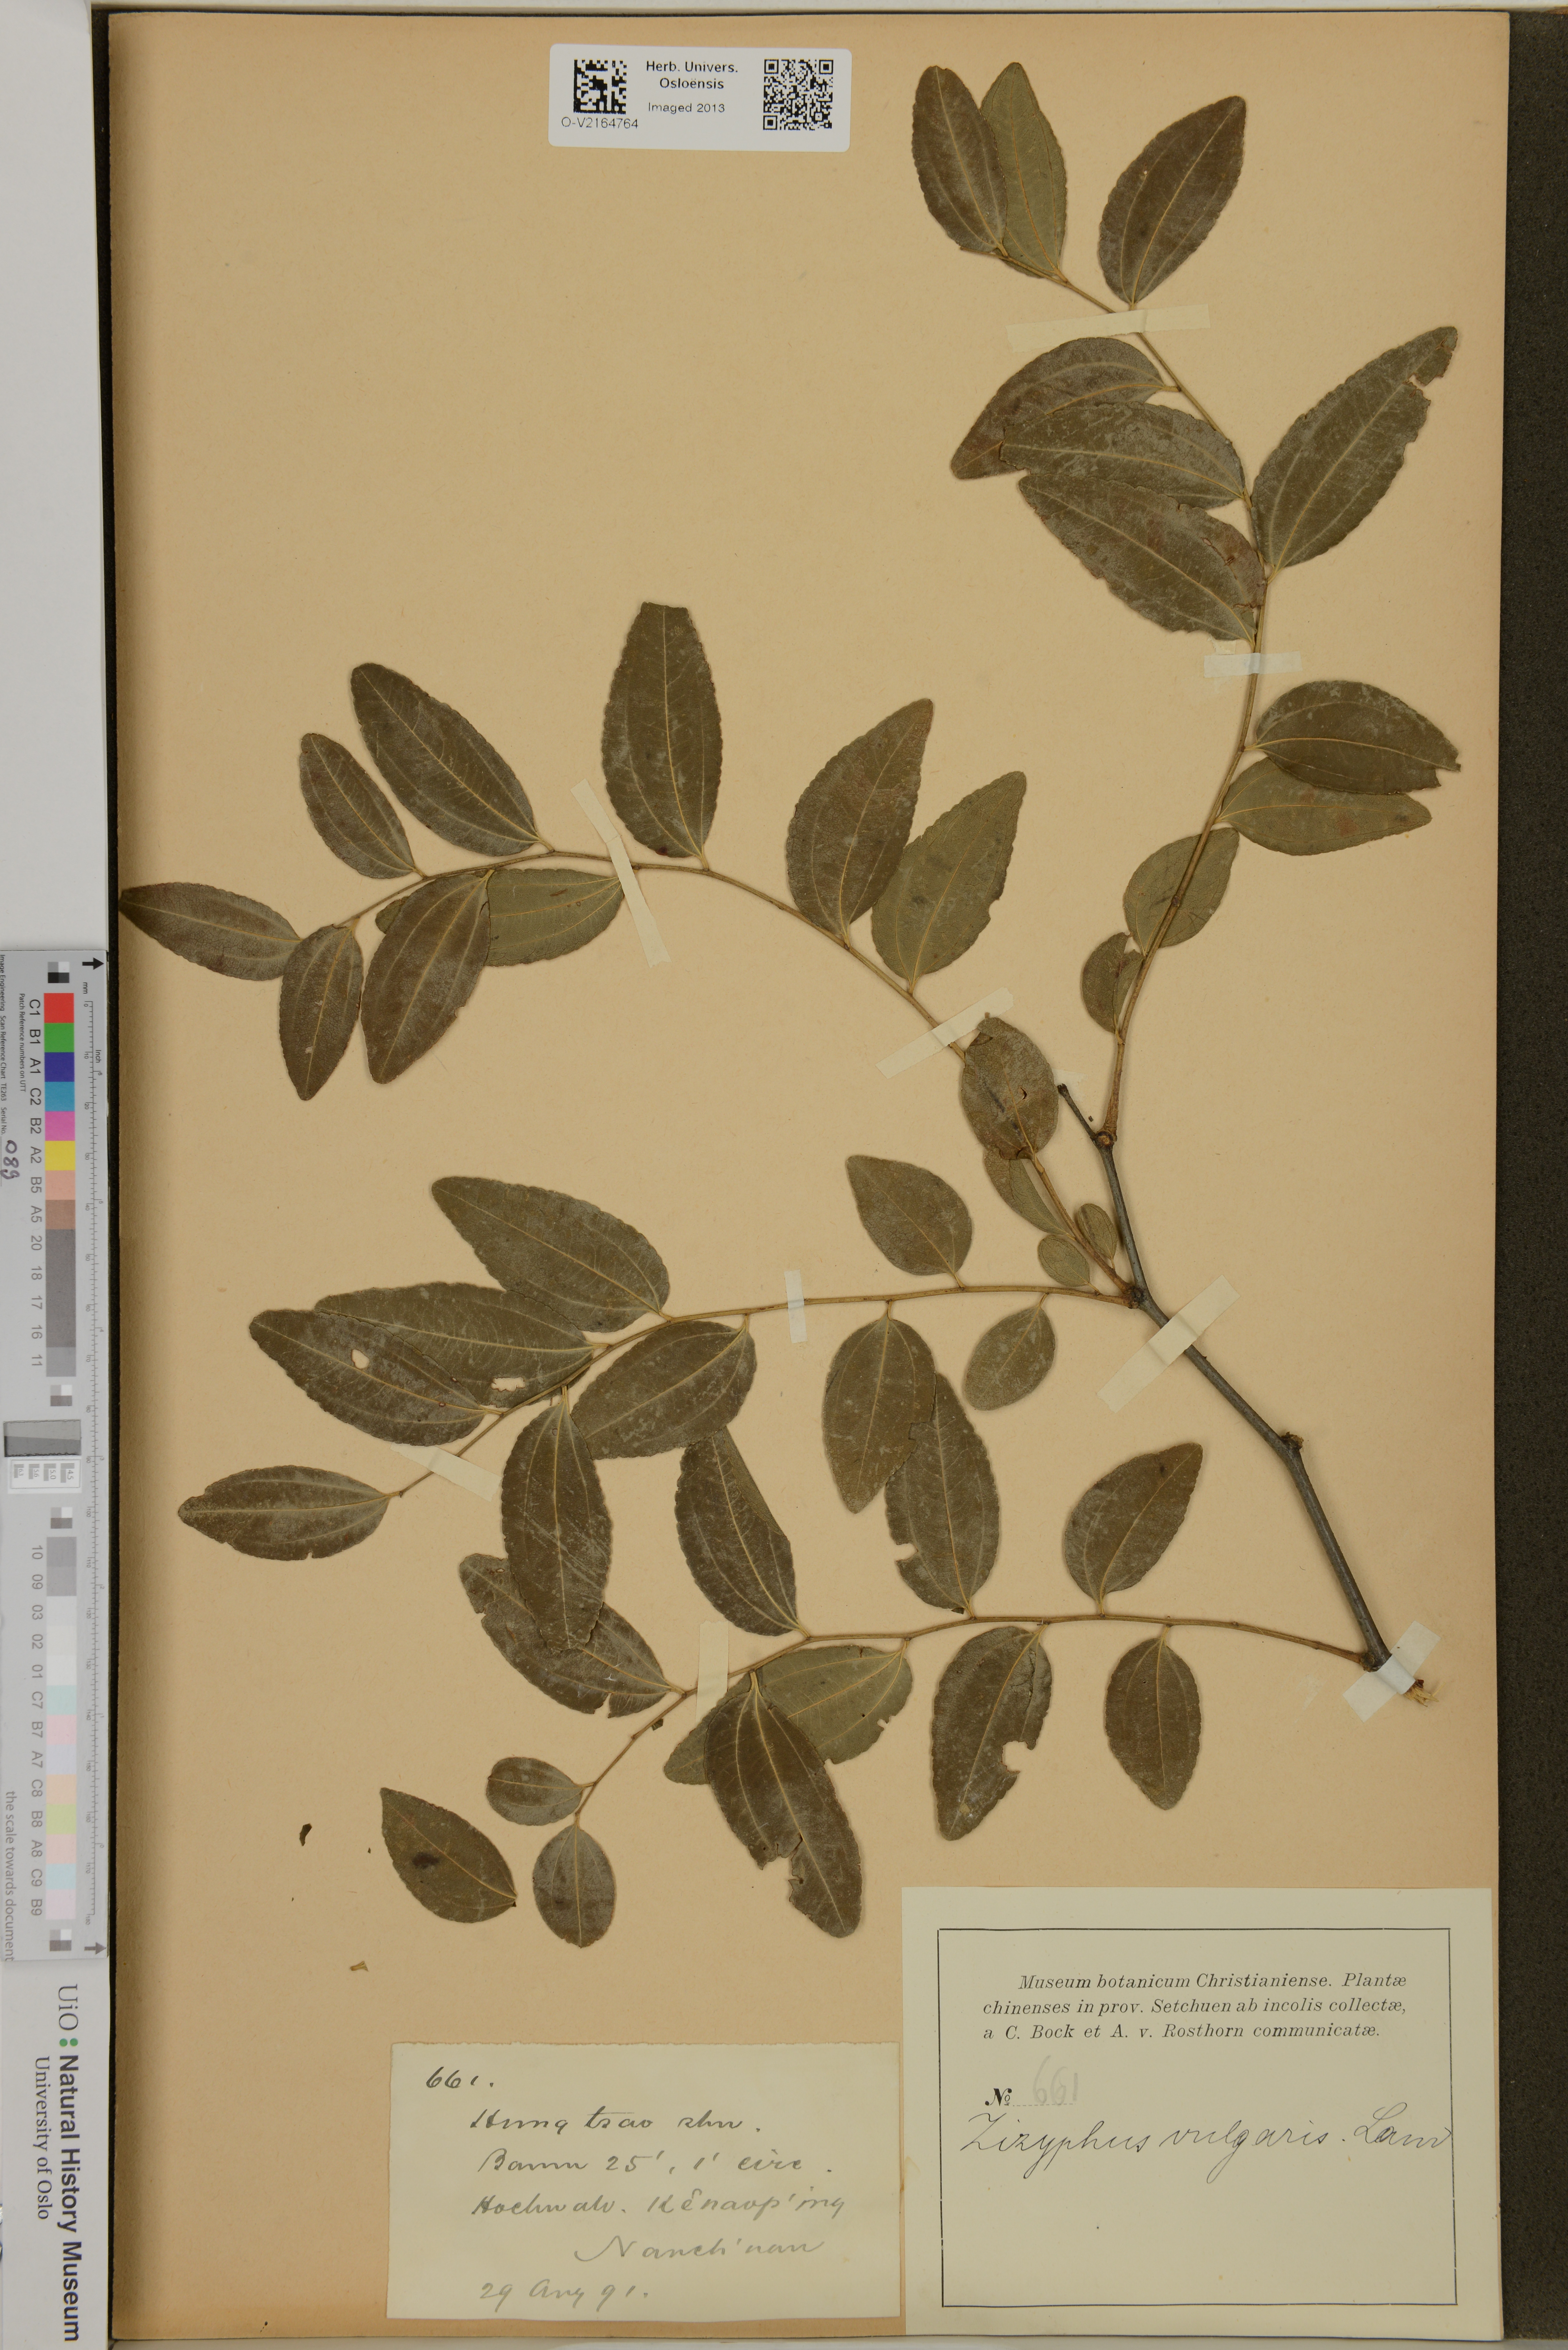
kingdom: Plantae
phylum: Tracheophyta
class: Magnoliopsida
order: Rosales
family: Rhamnaceae
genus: Ziziphus
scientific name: Ziziphus jujuba
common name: Jujube red date
